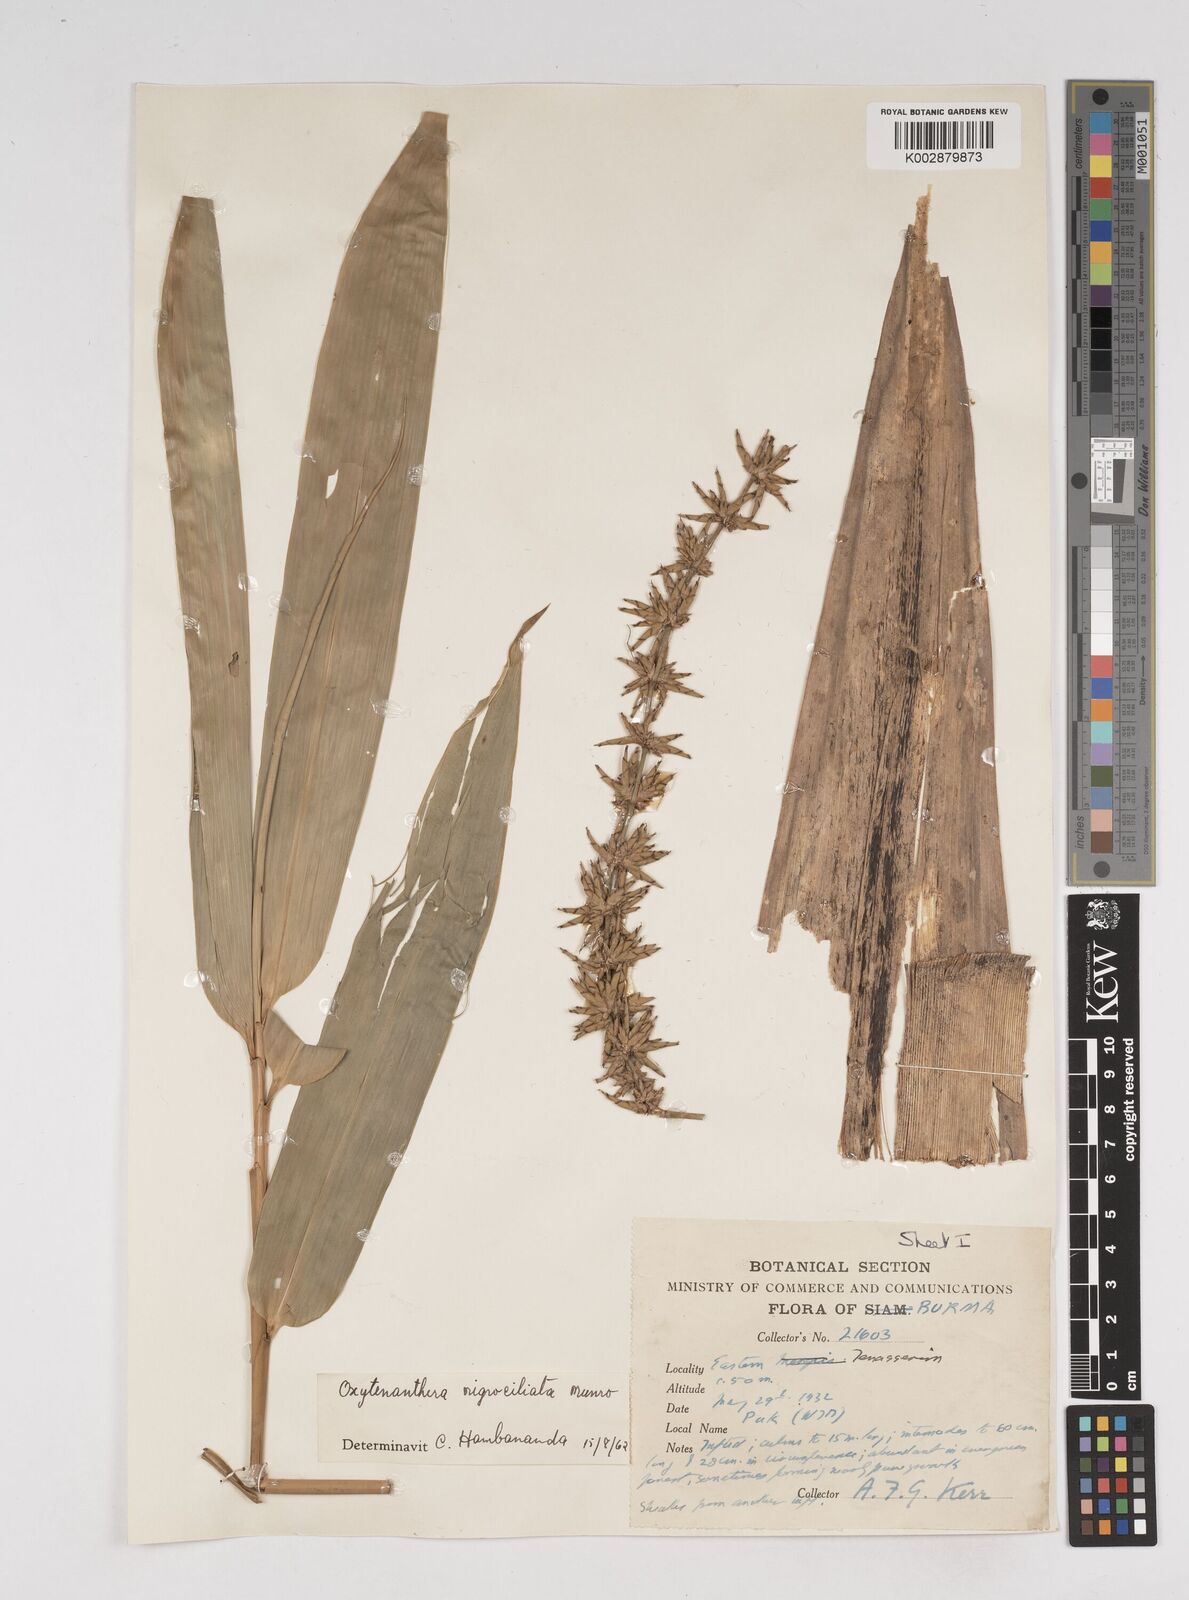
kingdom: Plantae
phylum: Tracheophyta
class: Liliopsida
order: Poales
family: Poaceae
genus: Gigantochloa
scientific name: Gigantochloa
